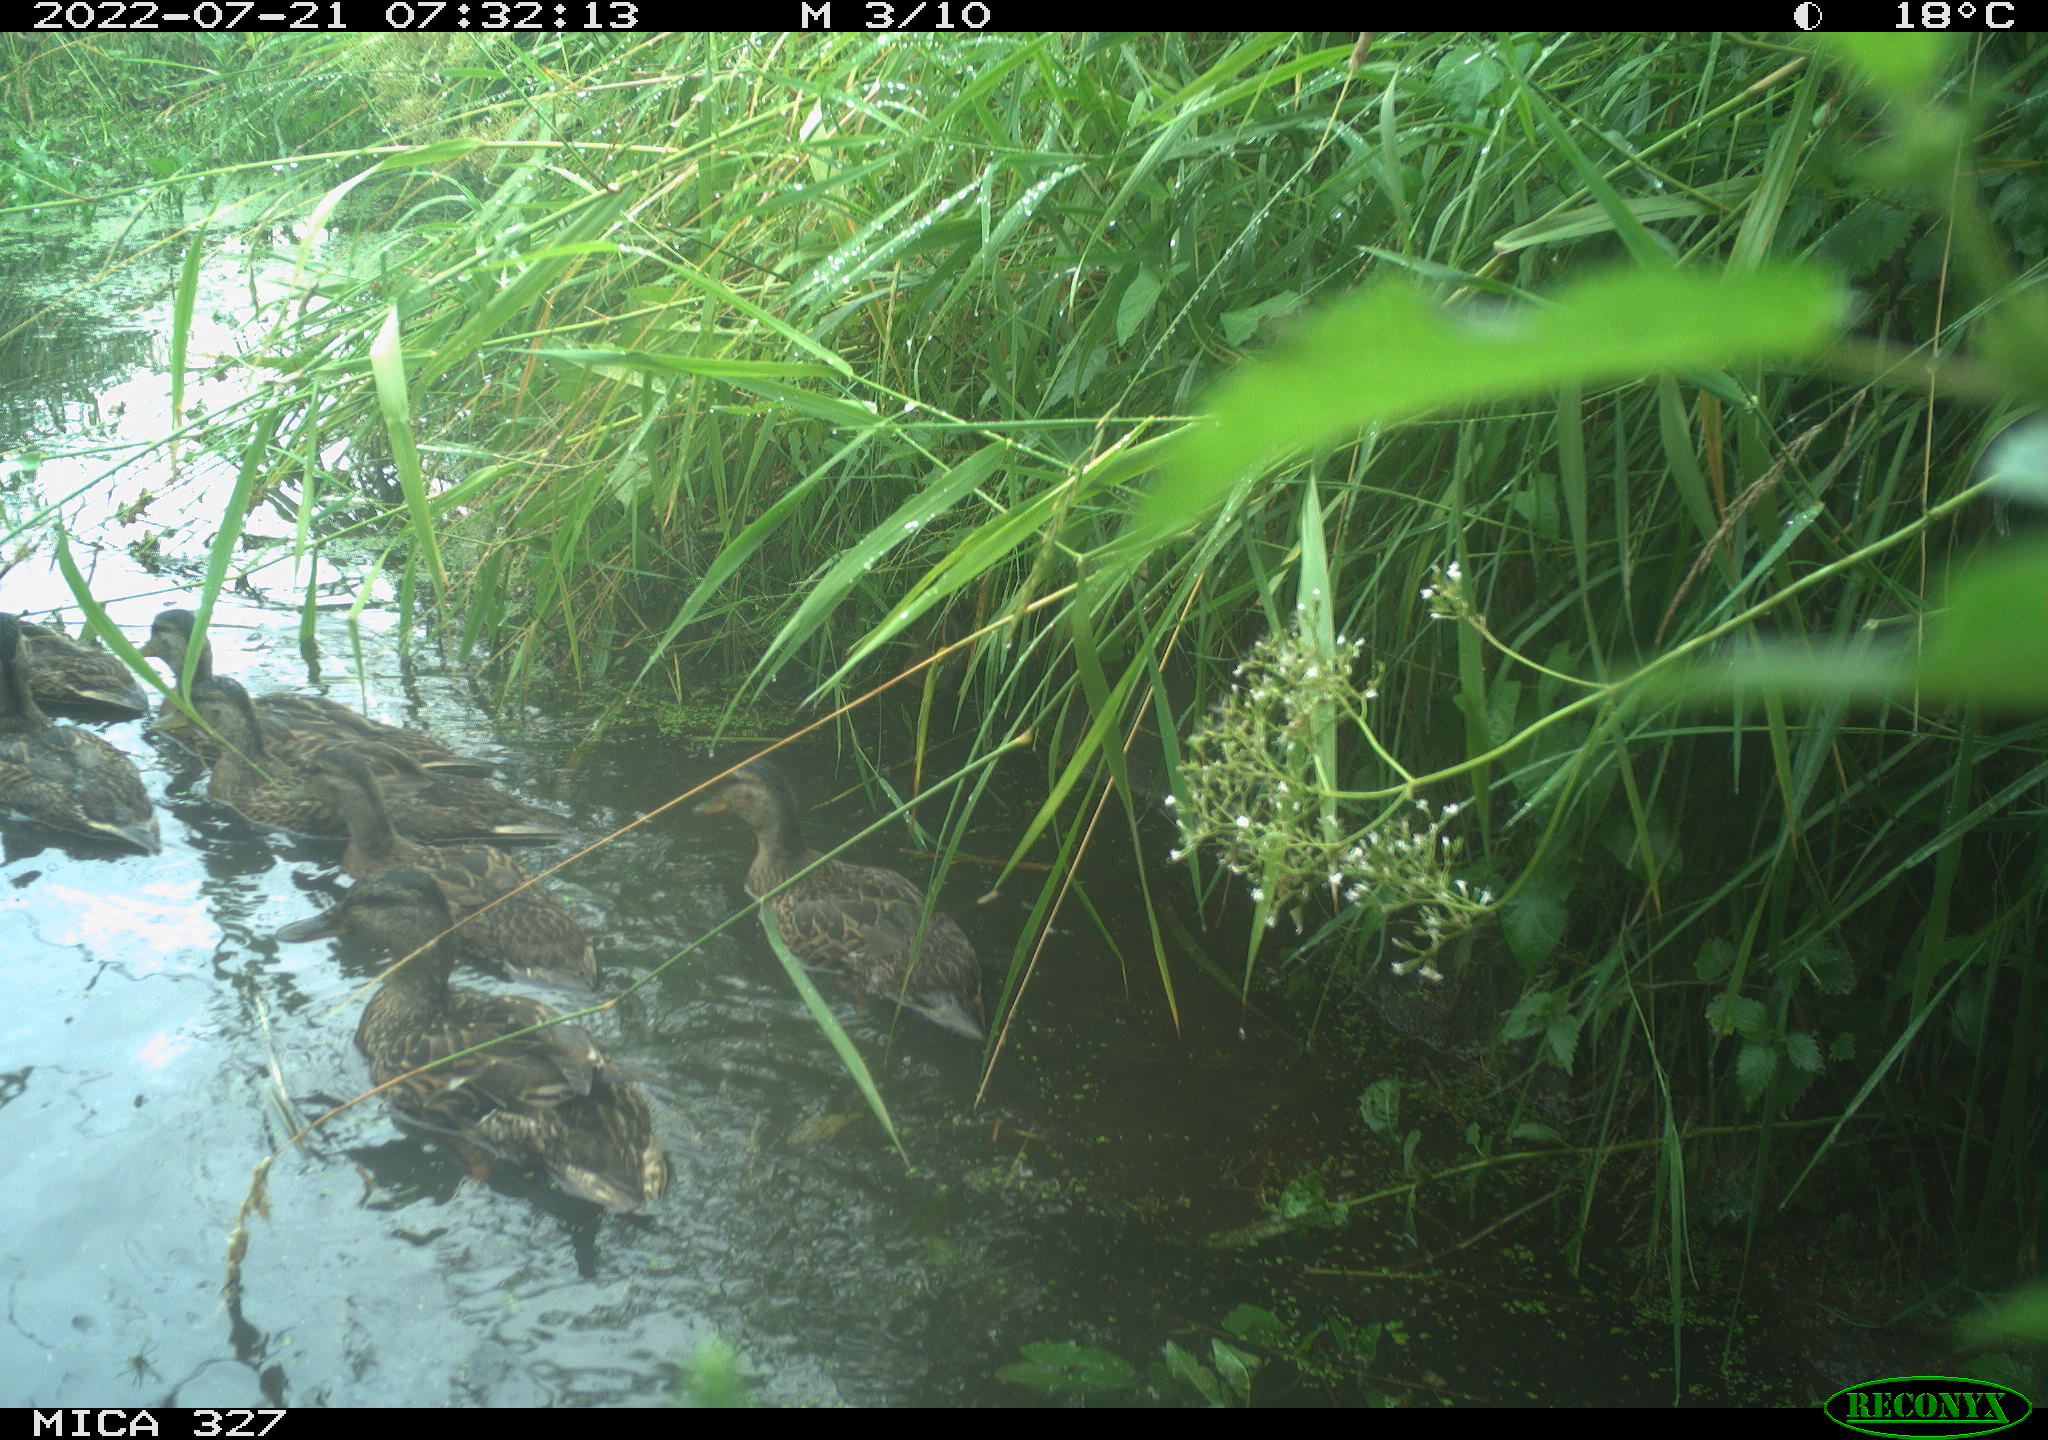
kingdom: Animalia
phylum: Chordata
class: Aves
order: Anseriformes
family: Anatidae
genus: Anas
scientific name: Anas
